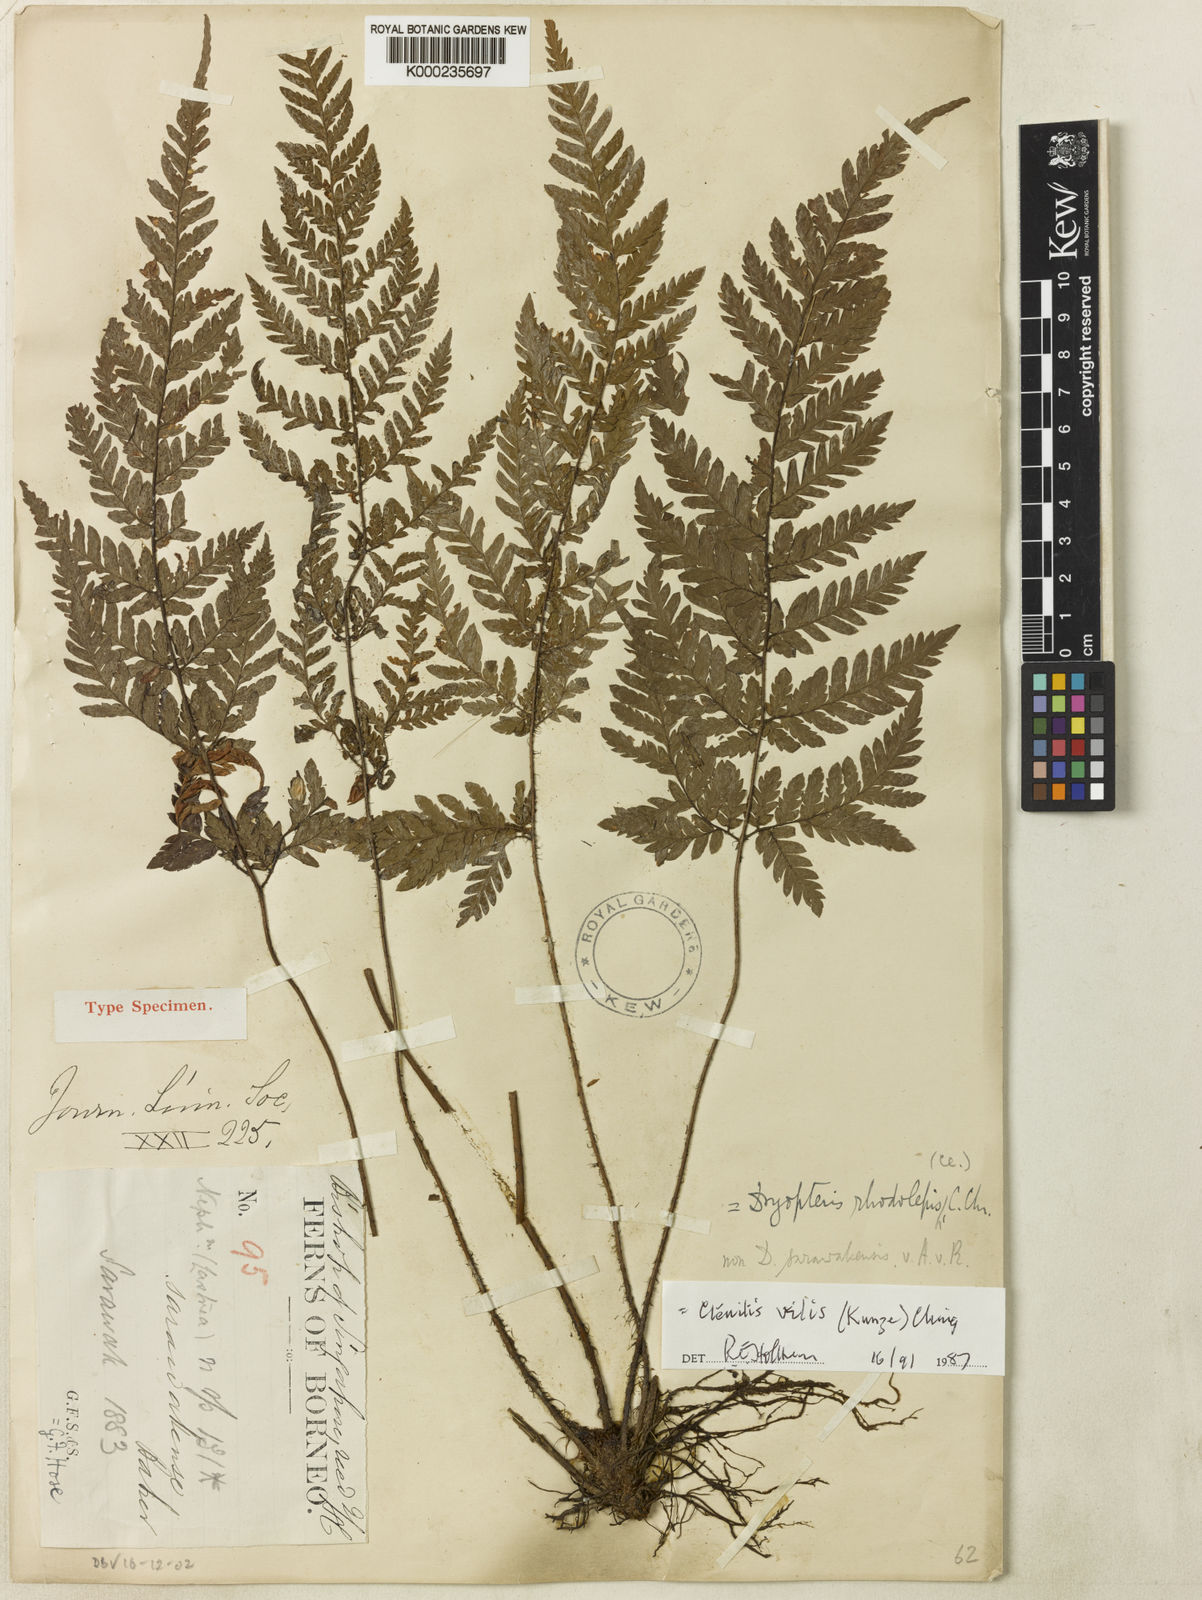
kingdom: Plantae
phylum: Tracheophyta
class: Polypodiopsida
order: Polypodiales
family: Dryopteridaceae
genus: Ctenitis
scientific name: Ctenitis vilis
